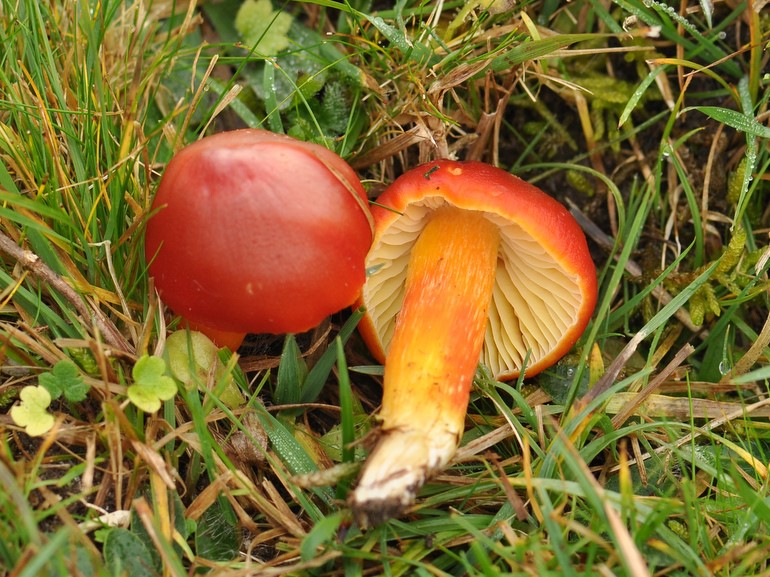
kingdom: Fungi
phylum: Basidiomycota
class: Agaricomycetes
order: Agaricales
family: Hygrophoraceae
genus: Hygrocybe
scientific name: Hygrocybe punicea
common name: skarlagen-vokshat
